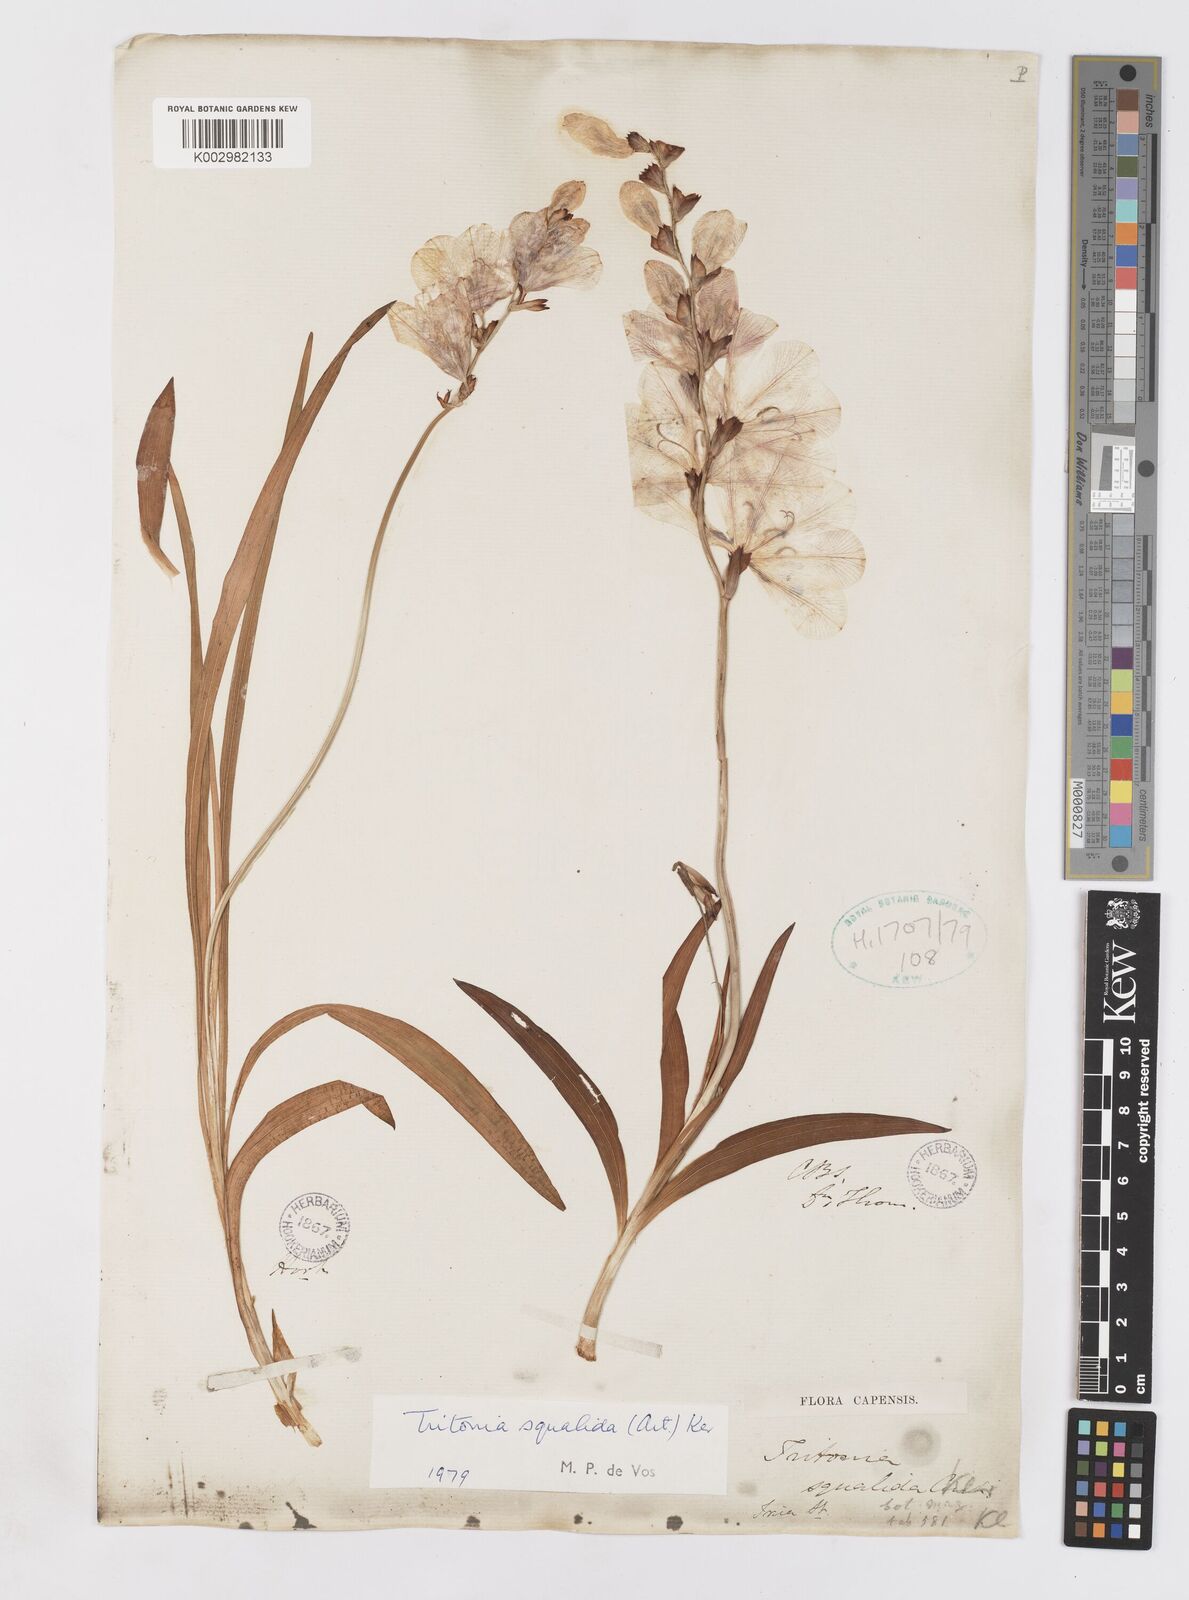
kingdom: Plantae
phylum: Tracheophyta
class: Liliopsida
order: Asparagales
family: Iridaceae
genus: Tritonia
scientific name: Tritonia squalida
